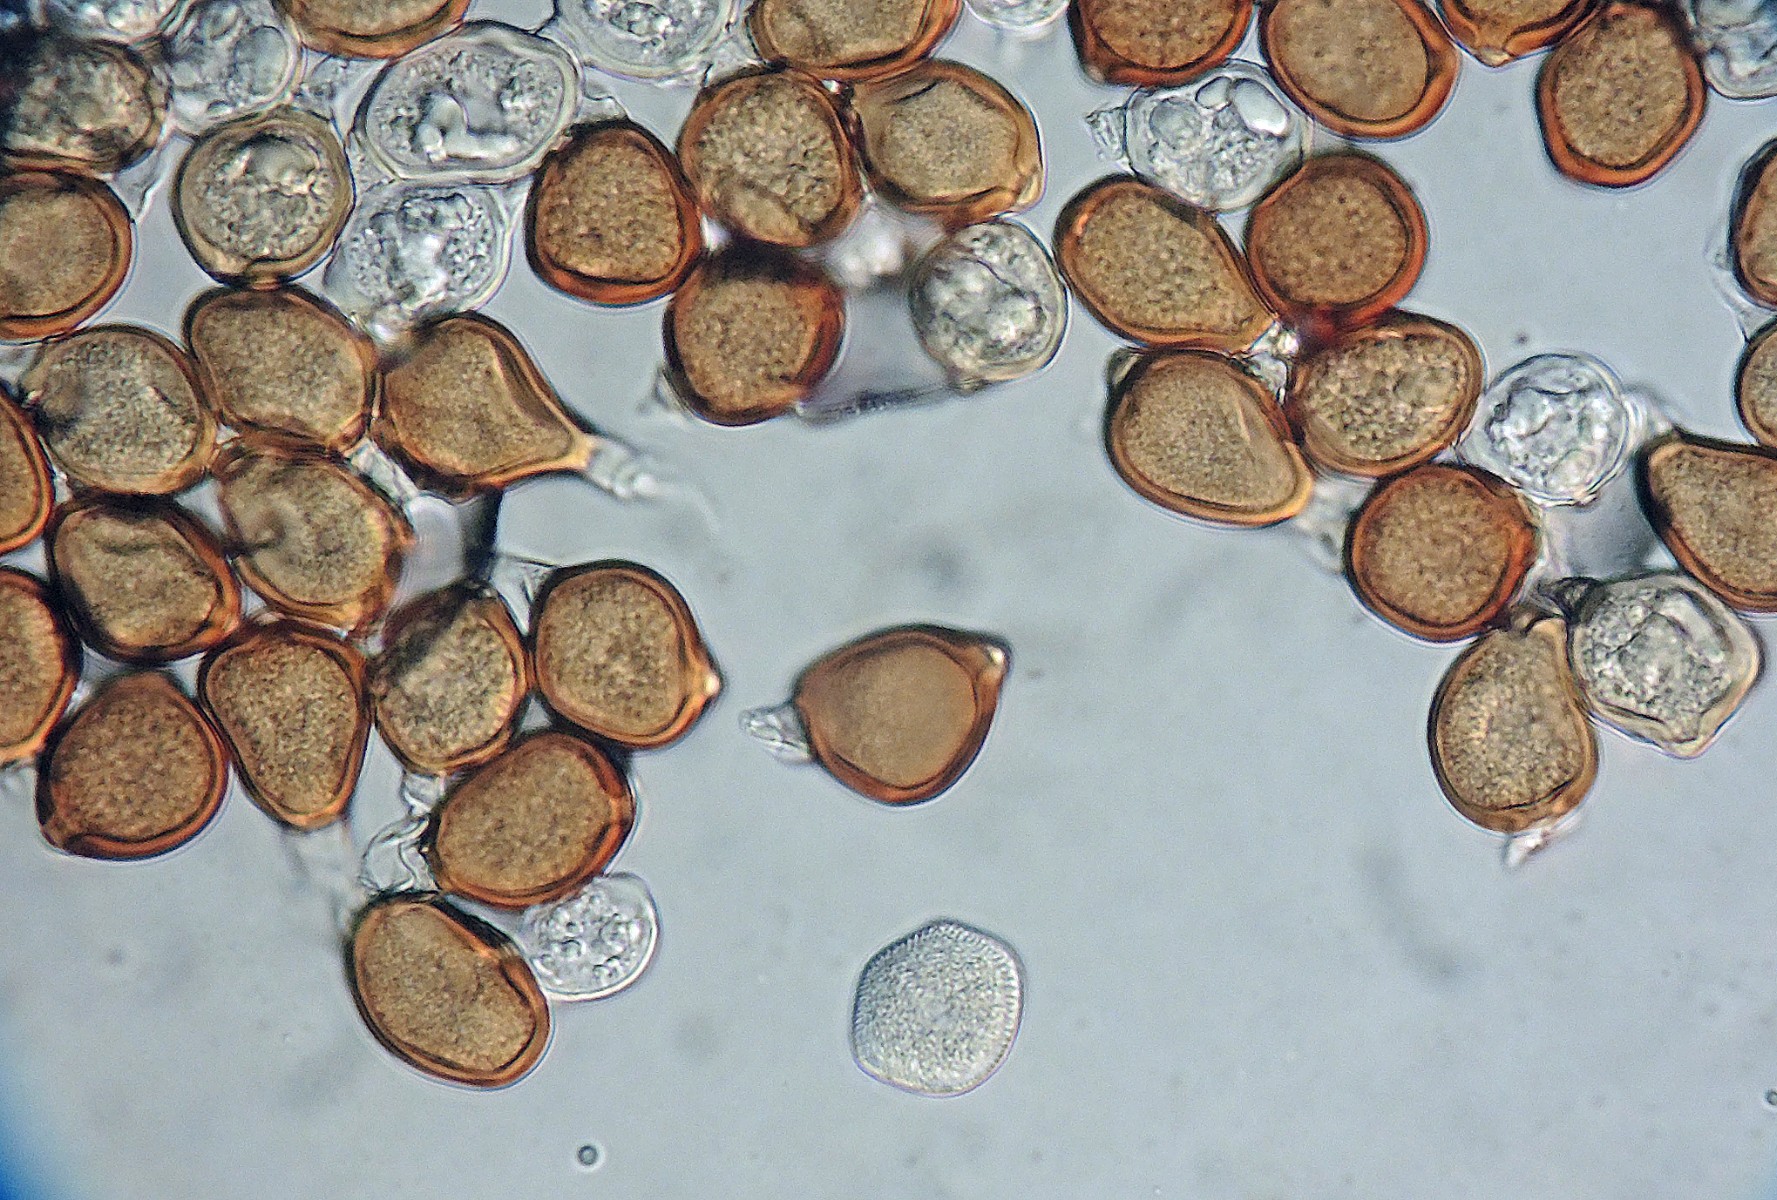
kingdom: Fungi
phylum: Basidiomycota
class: Pucciniomycetes
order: Pucciniales
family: Pucciniaceae
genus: Uromyces
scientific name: Uromyces minor
